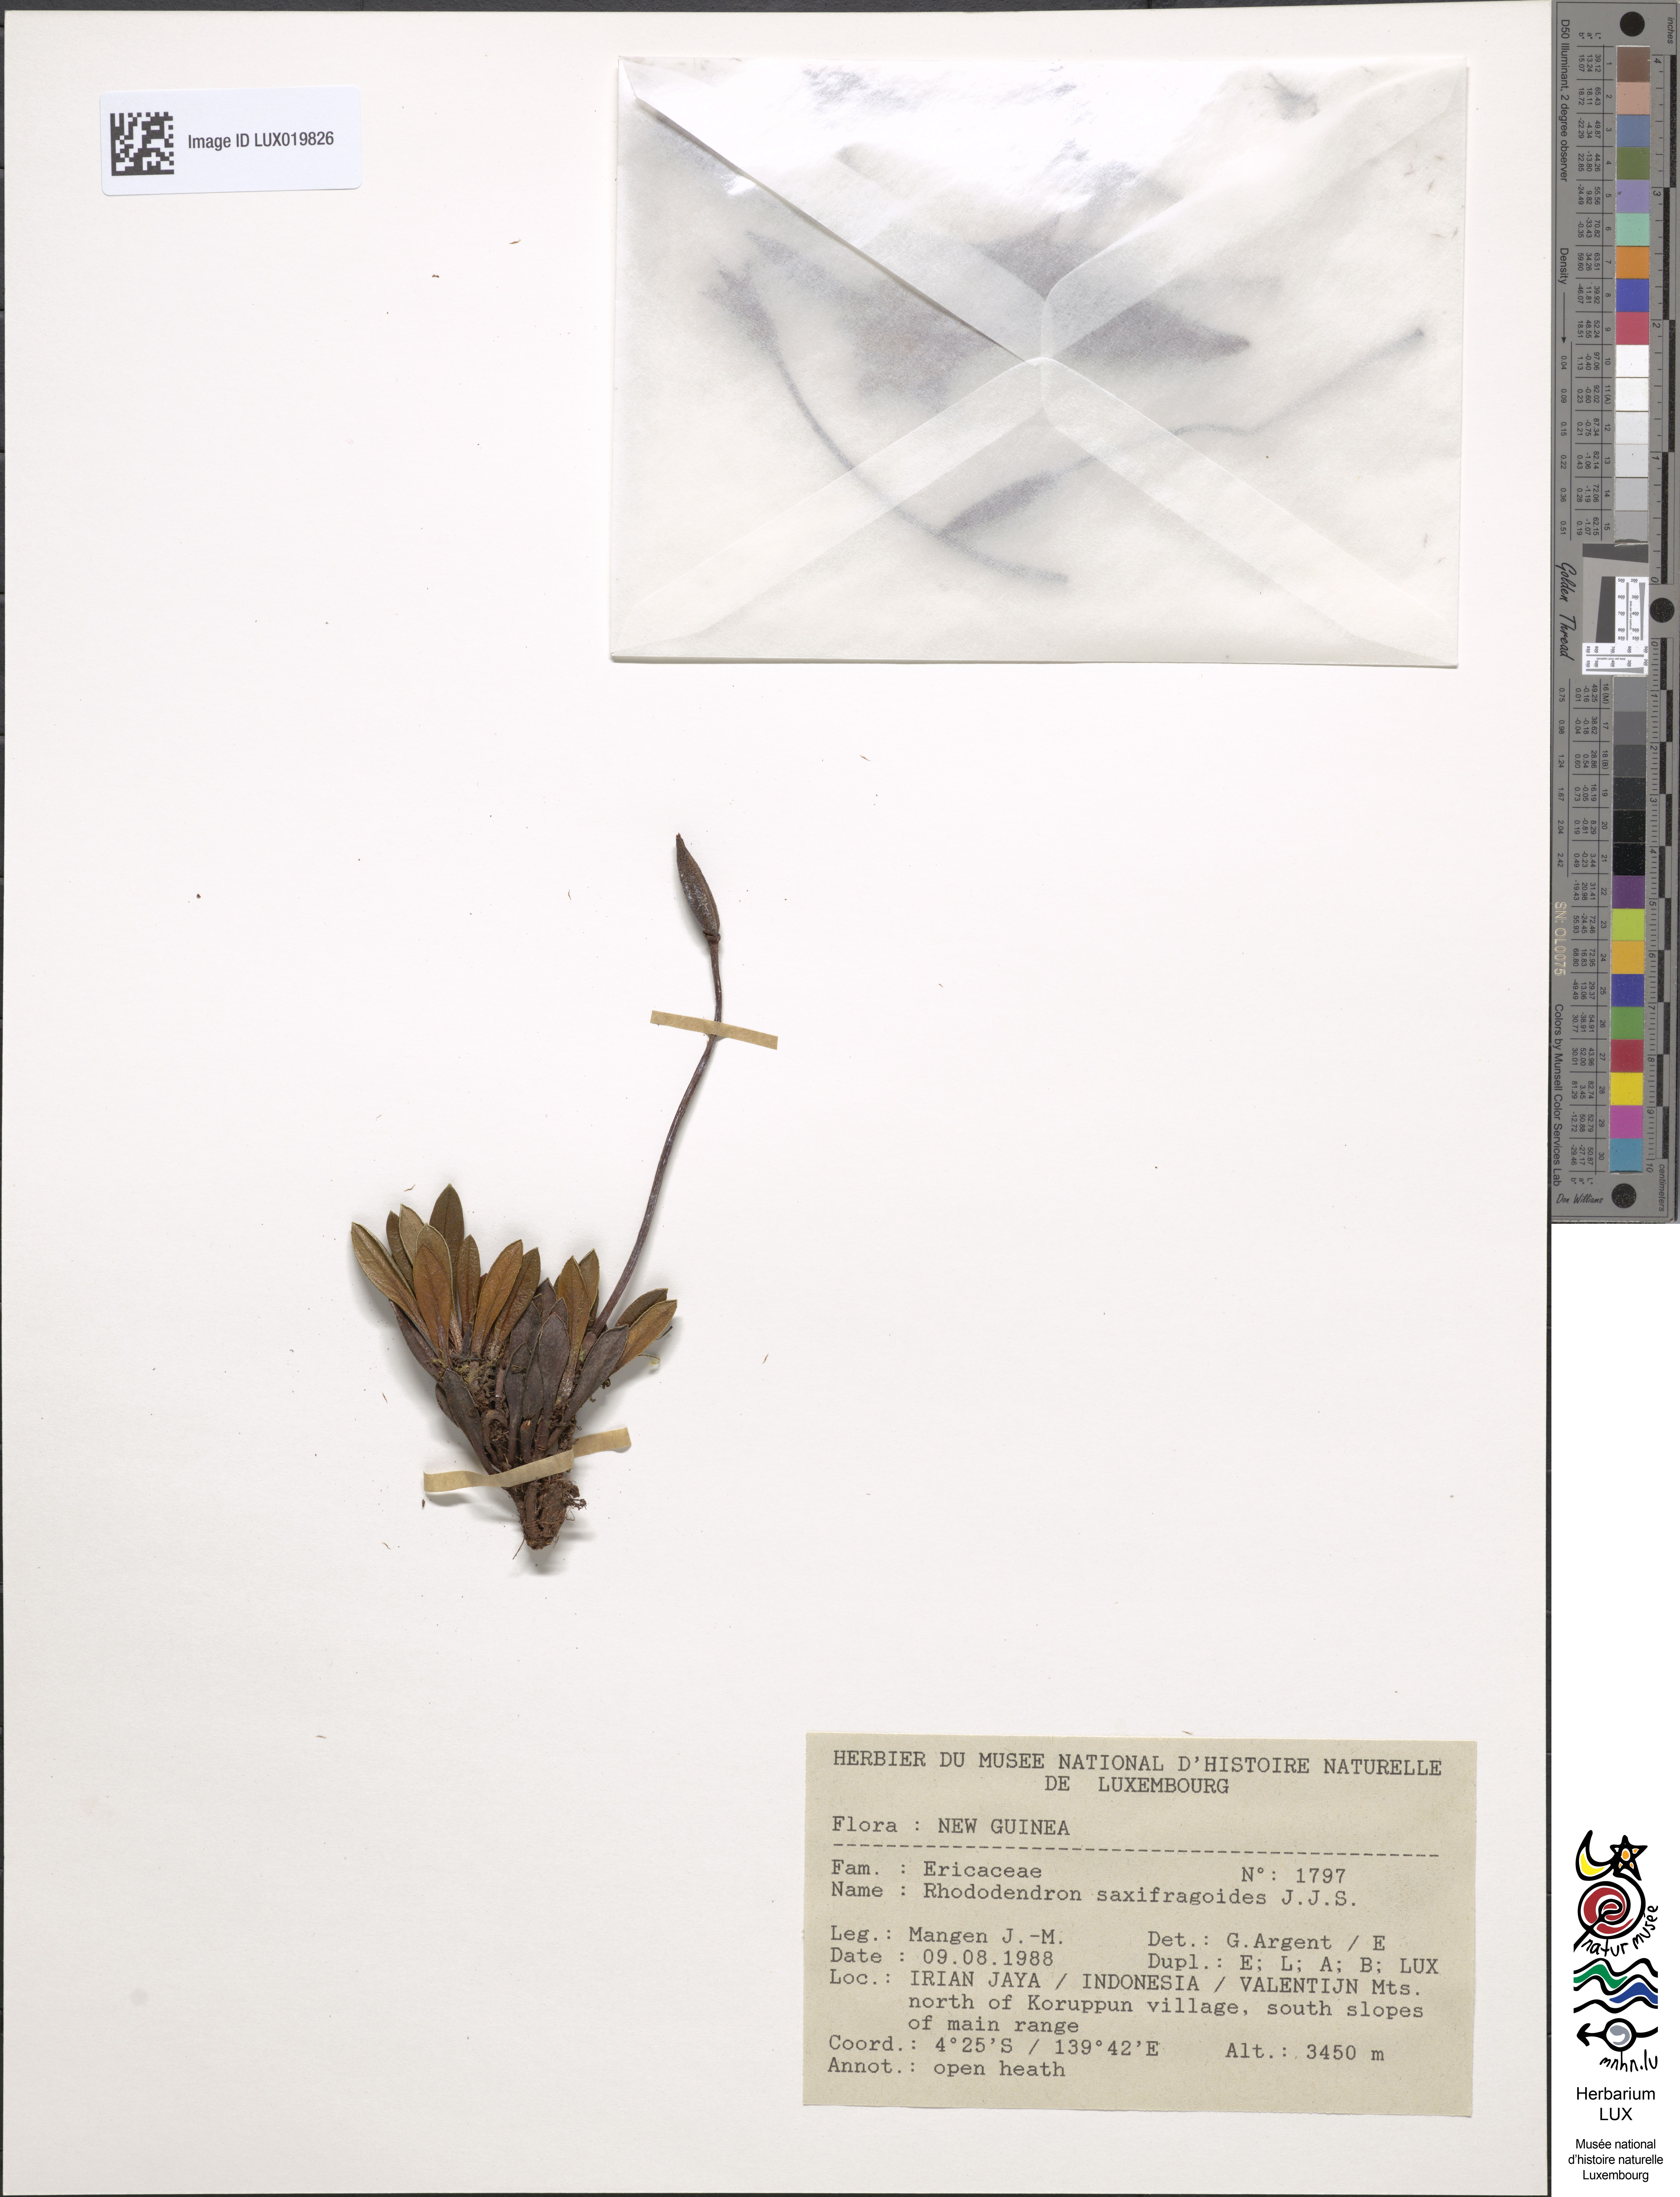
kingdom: Plantae
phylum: Tracheophyta
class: Magnoliopsida
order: Ericales
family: Ericaceae
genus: Rhododendron
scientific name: Rhododendron saxifragoides
